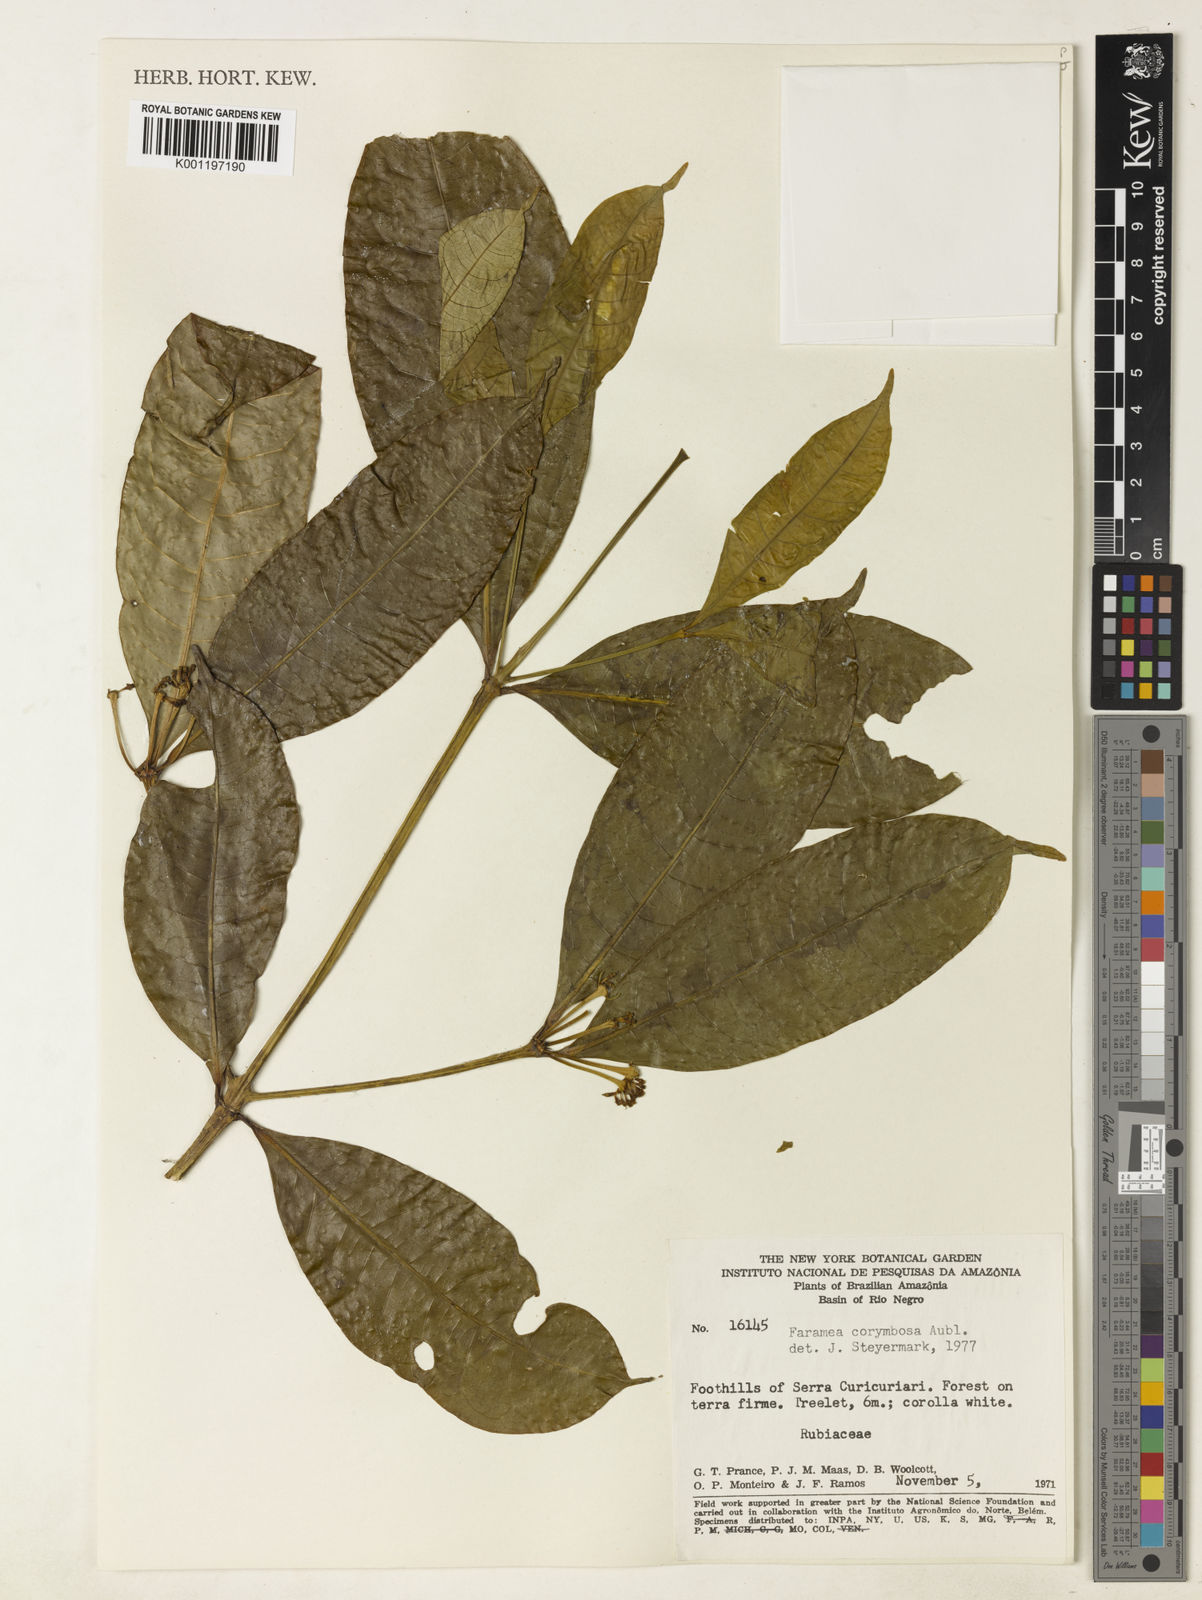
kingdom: Plantae
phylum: Tracheophyta
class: Magnoliopsida
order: Gentianales
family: Rubiaceae
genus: Faramea
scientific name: Faramea corymbosa
